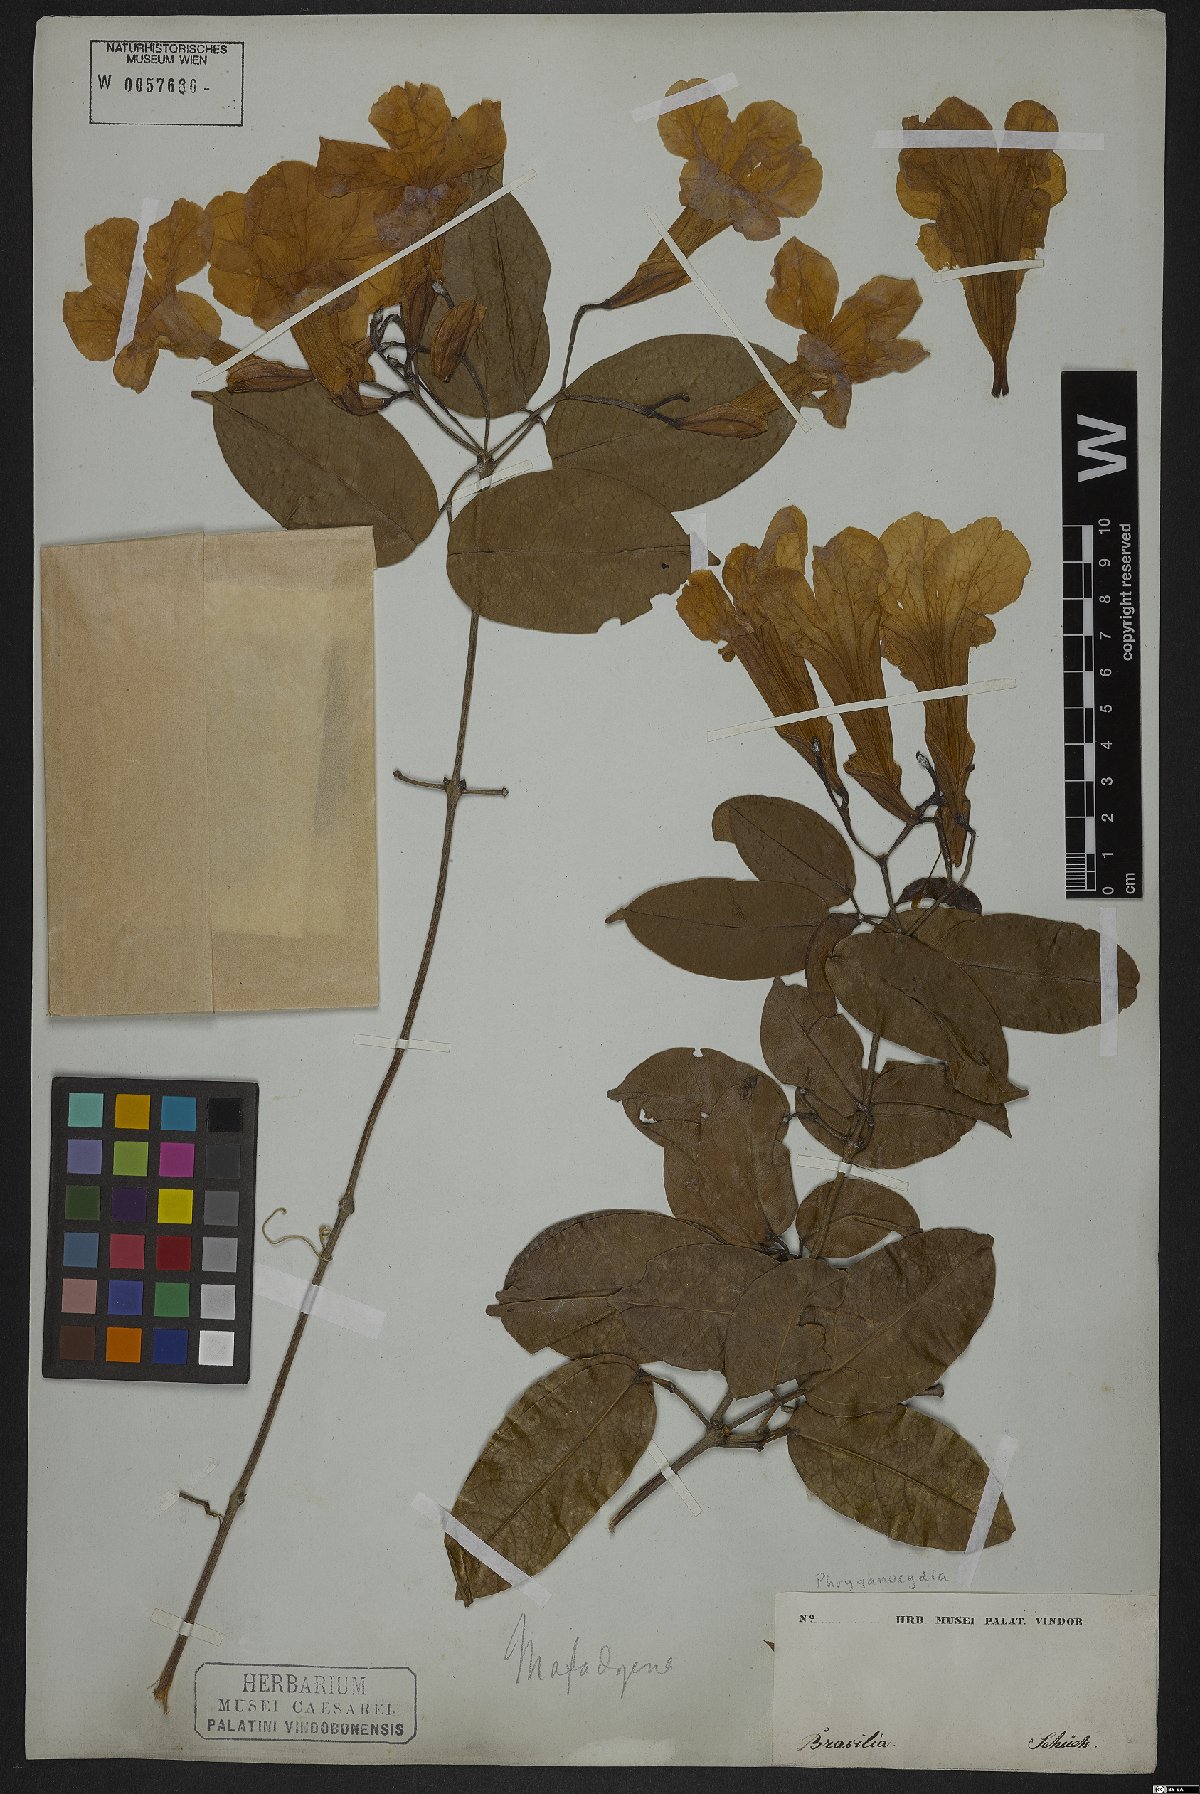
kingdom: Plantae
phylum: Tracheophyta
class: Magnoliopsida
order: Lamiales
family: Bignoniaceae
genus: Phryganocydia
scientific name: Phryganocydia
